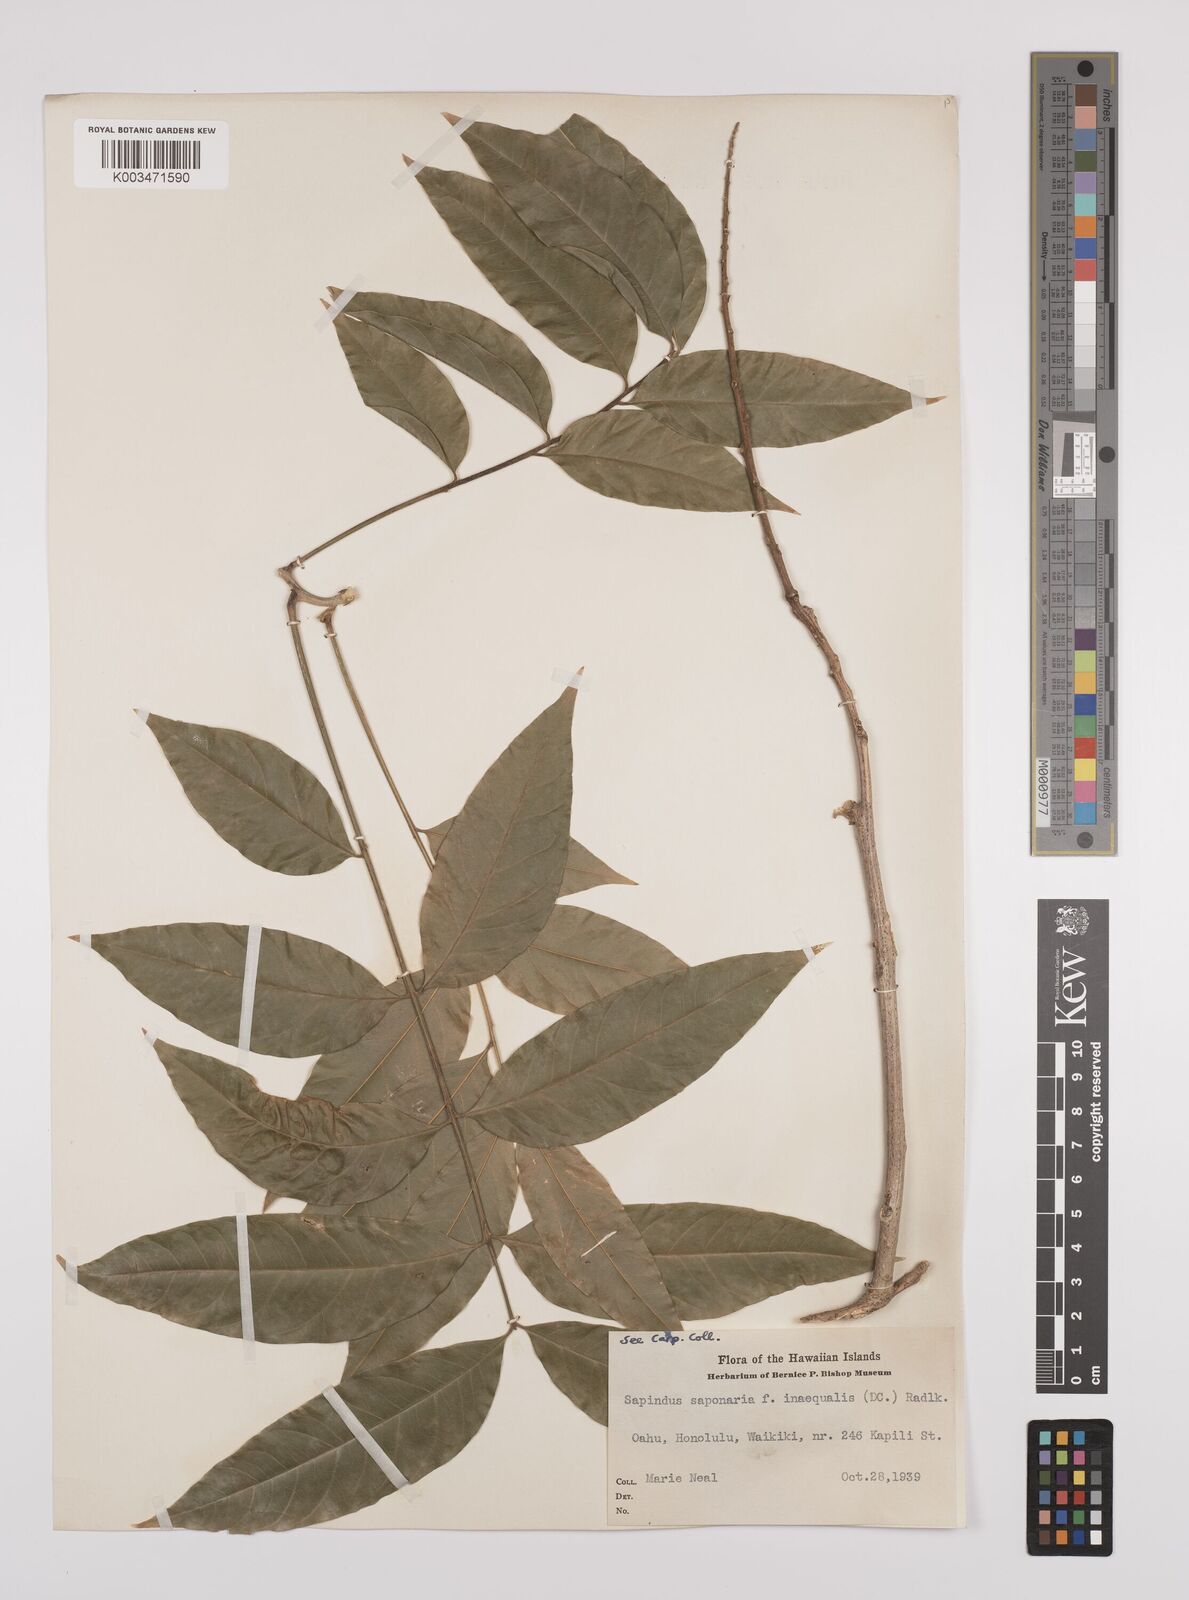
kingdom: Plantae
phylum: Tracheophyta
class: Magnoliopsida
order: Sapindales
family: Sapindaceae
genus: Sapindus
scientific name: Sapindus
